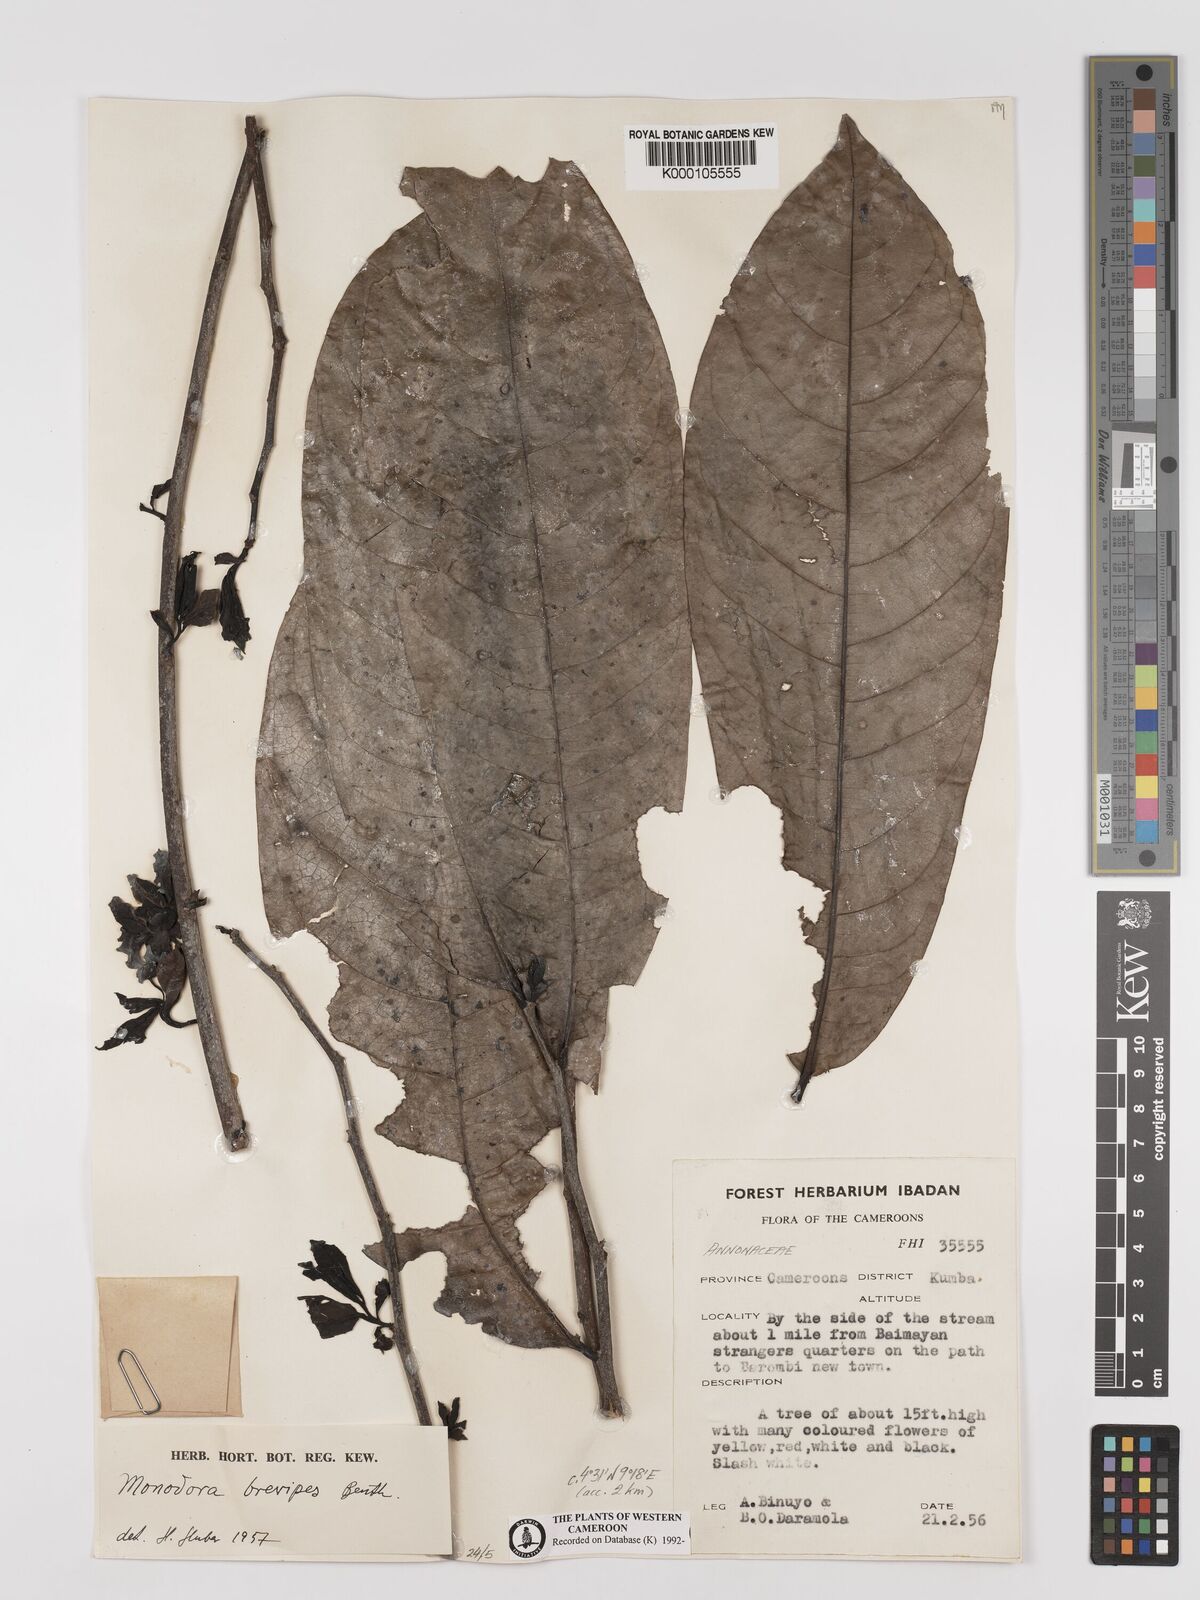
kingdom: Plantae
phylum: Tracheophyta
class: Magnoliopsida
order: Magnoliales
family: Annonaceae
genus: Monodora
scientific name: Monodora undulata
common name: Yellow-flower-nutmeg
